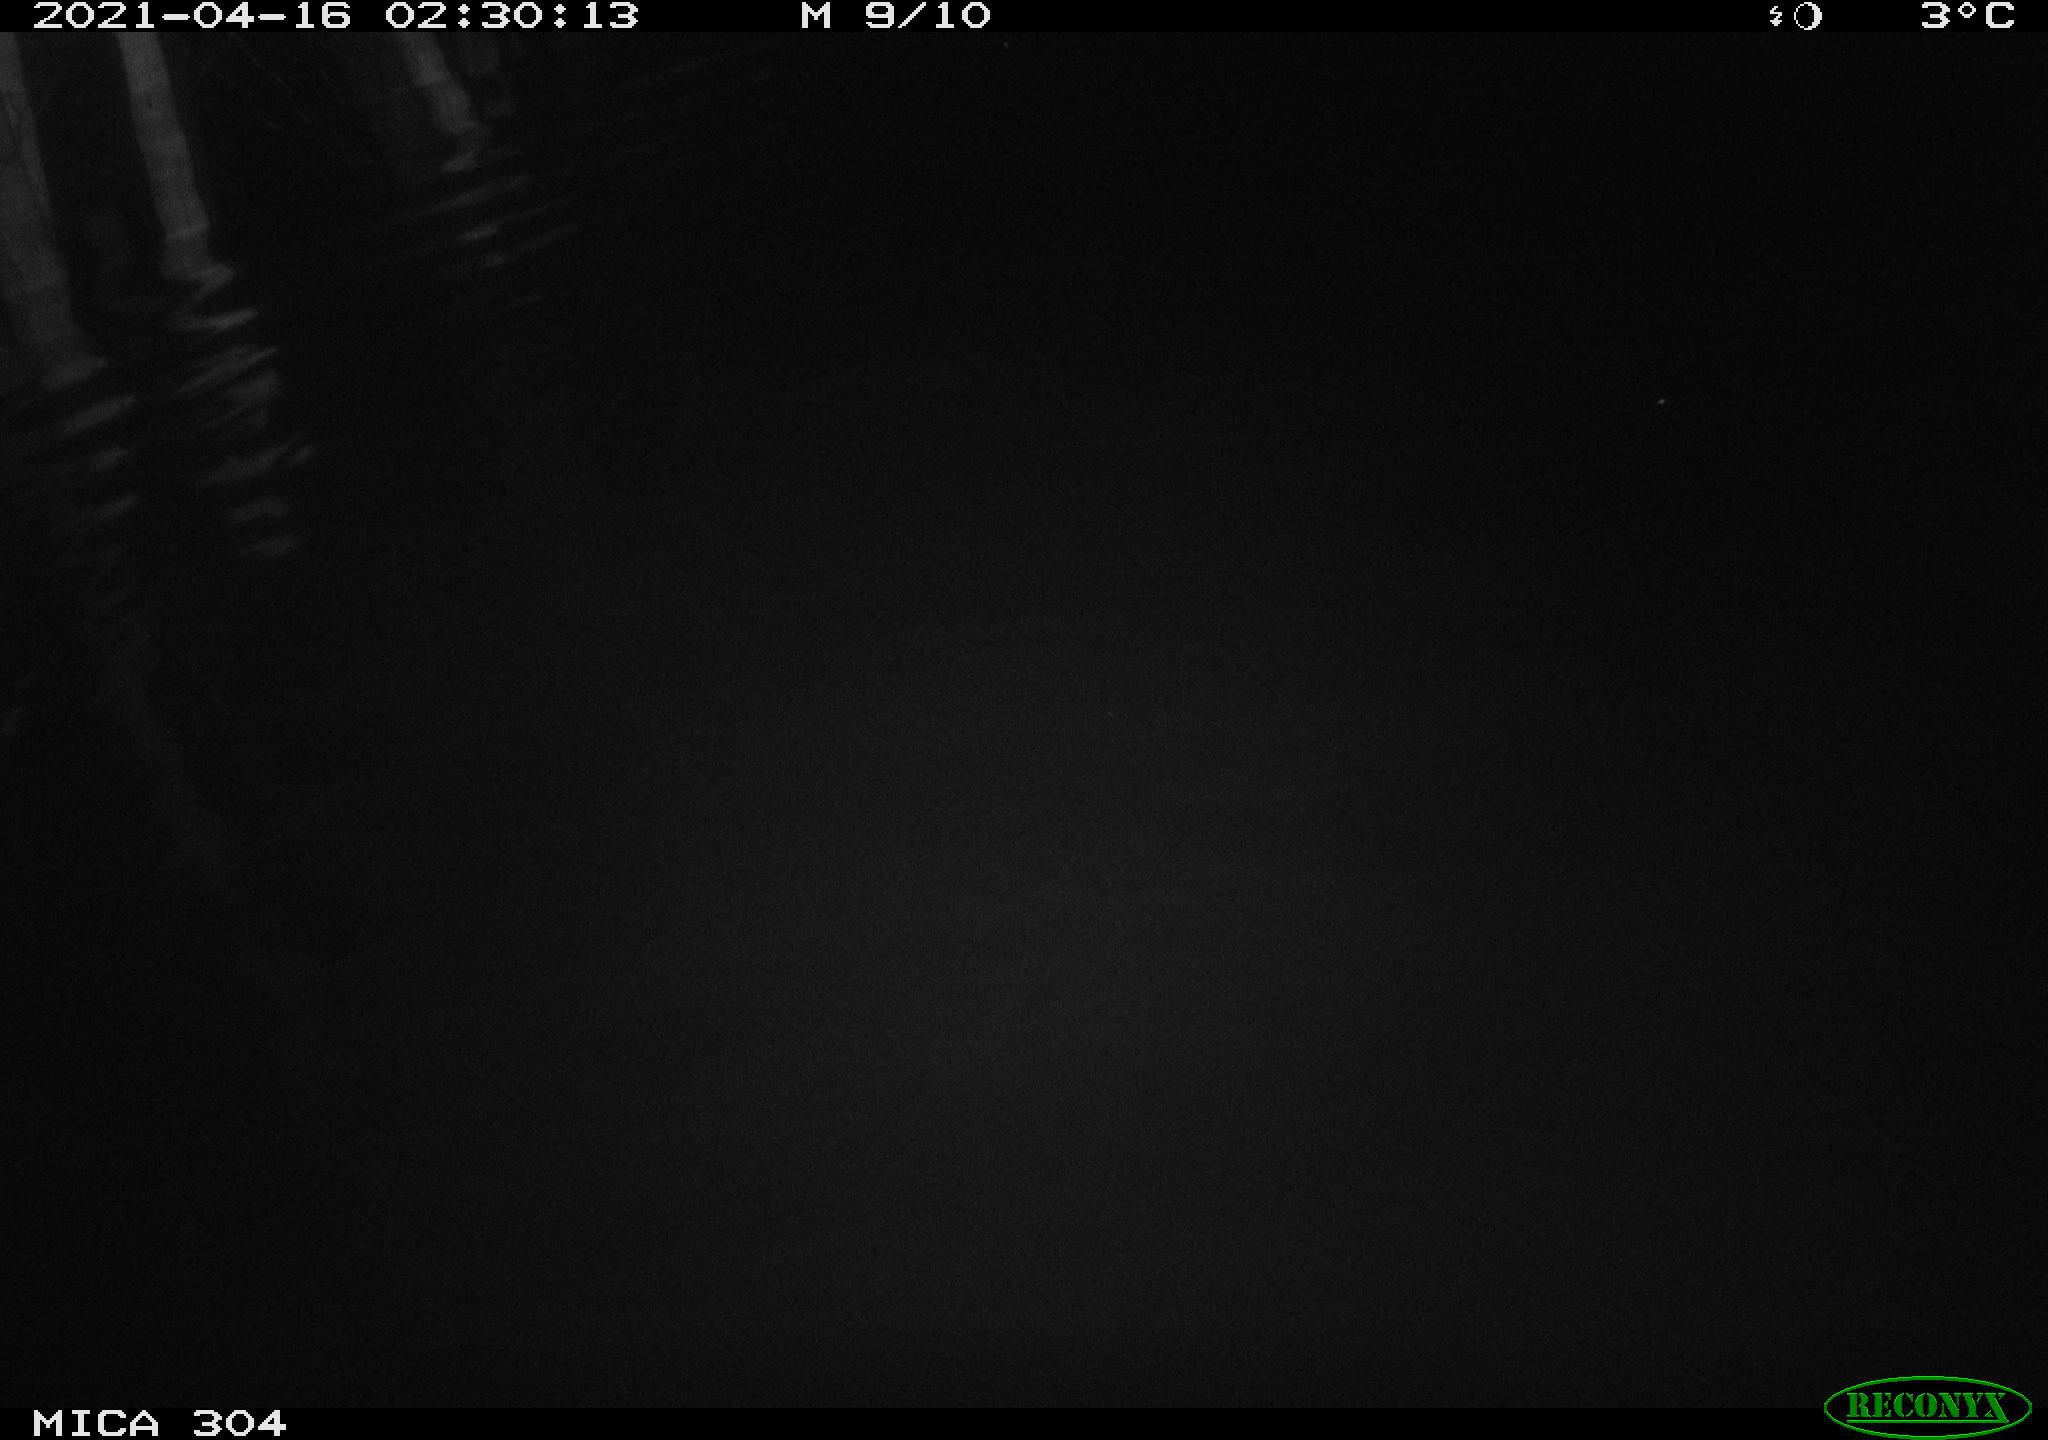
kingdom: Animalia
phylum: Chordata
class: Aves
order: Anseriformes
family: Anatidae
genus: Anas
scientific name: Anas
